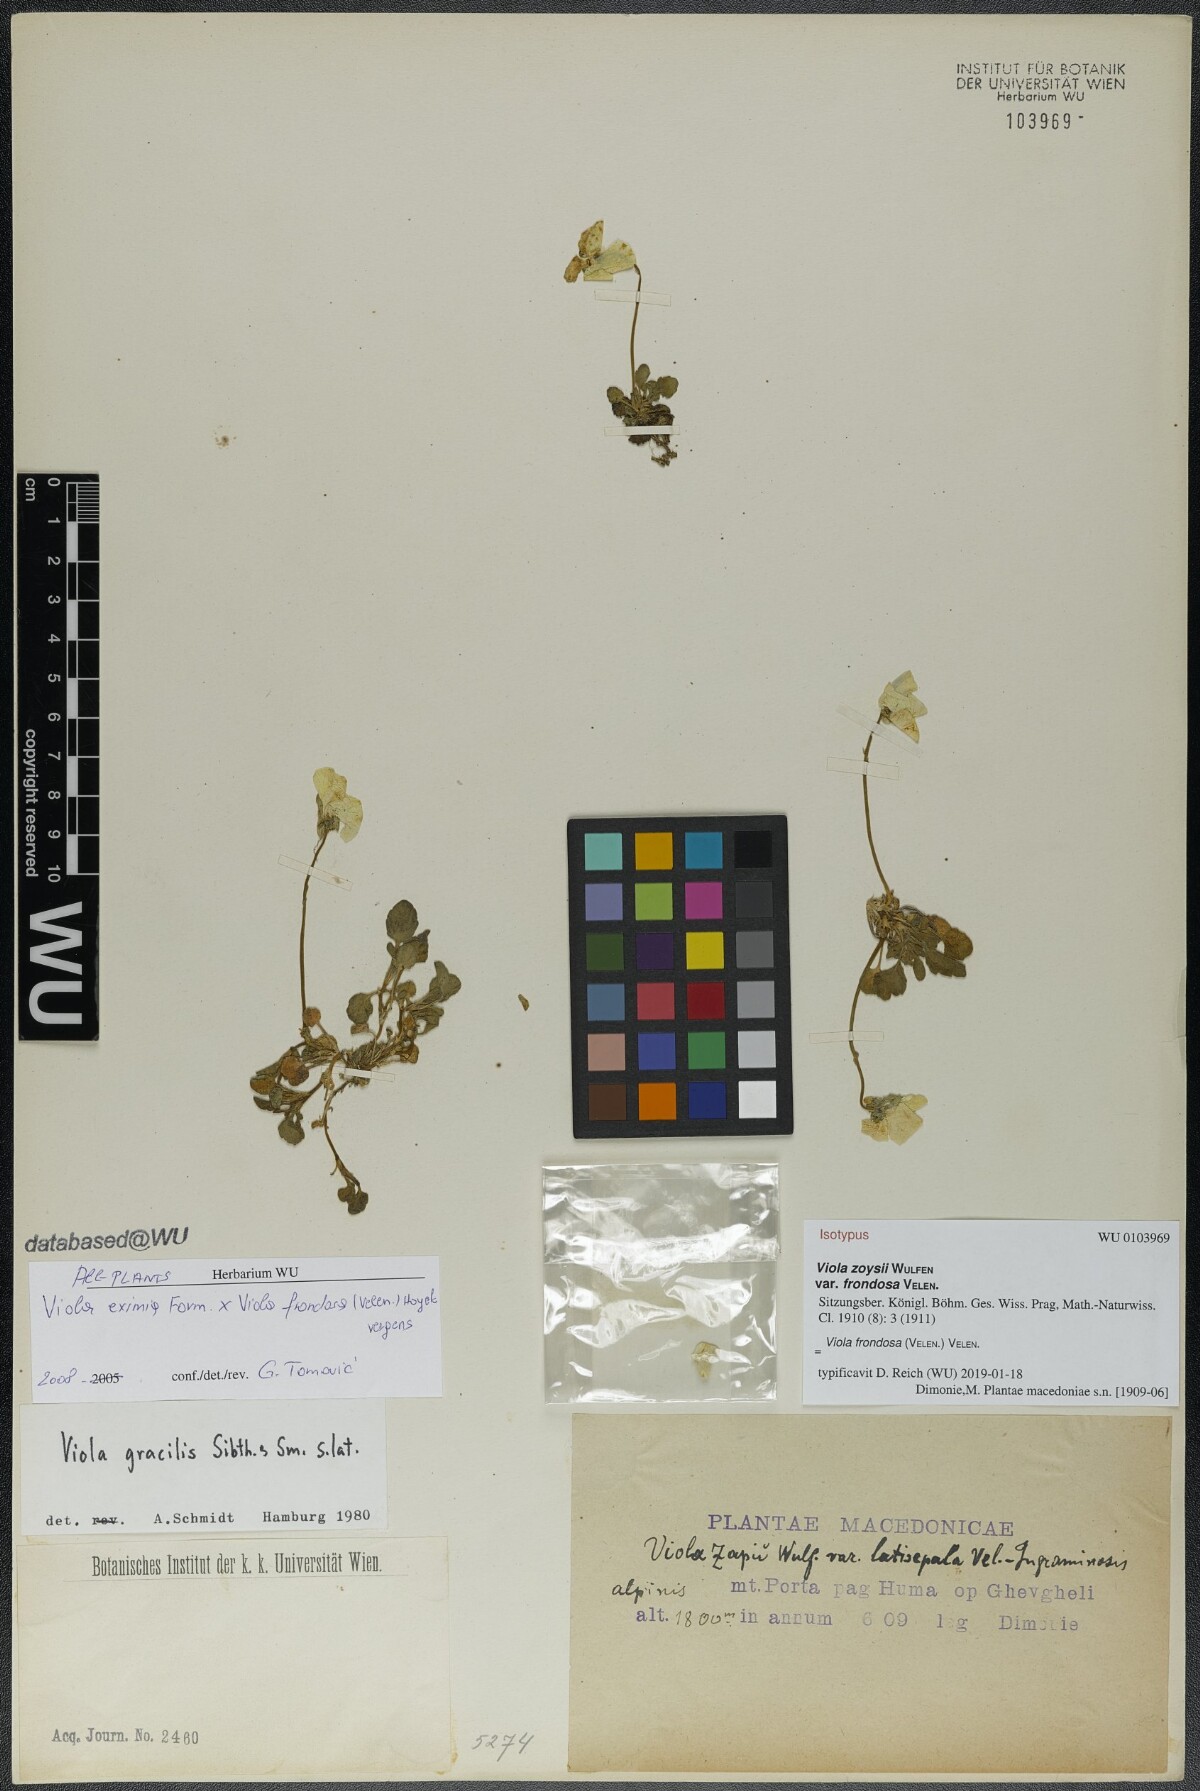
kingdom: Plantae
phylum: Tracheophyta
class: Magnoliopsida
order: Malpighiales
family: Violaceae
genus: Viola
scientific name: Viola frondosa
